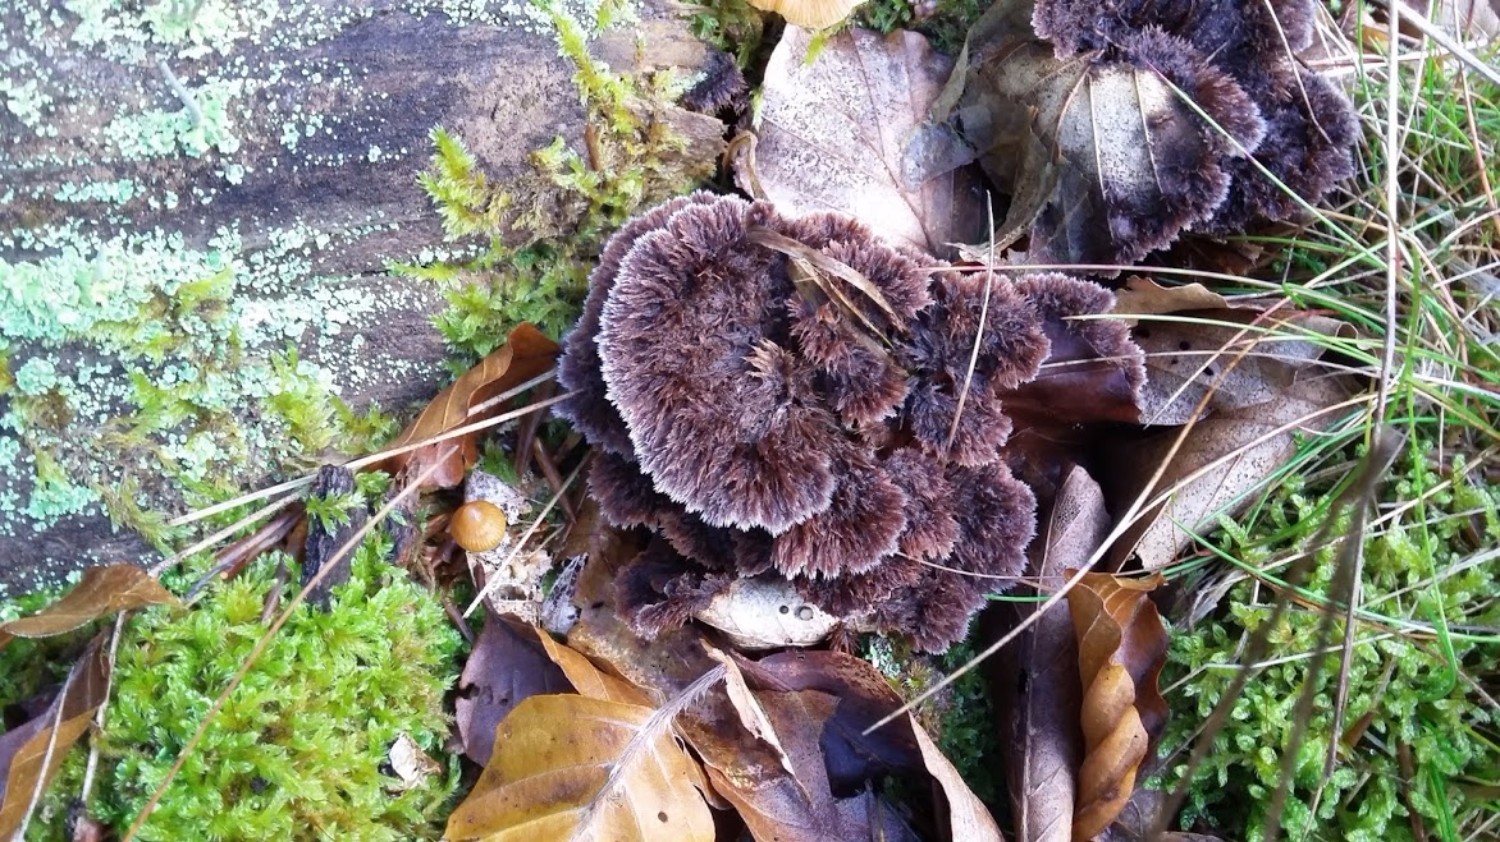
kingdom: Fungi
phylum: Basidiomycota
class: Agaricomycetes
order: Thelephorales
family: Thelephoraceae
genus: Thelephora
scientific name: Thelephora terrestris
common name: fliget frynsesvamp
